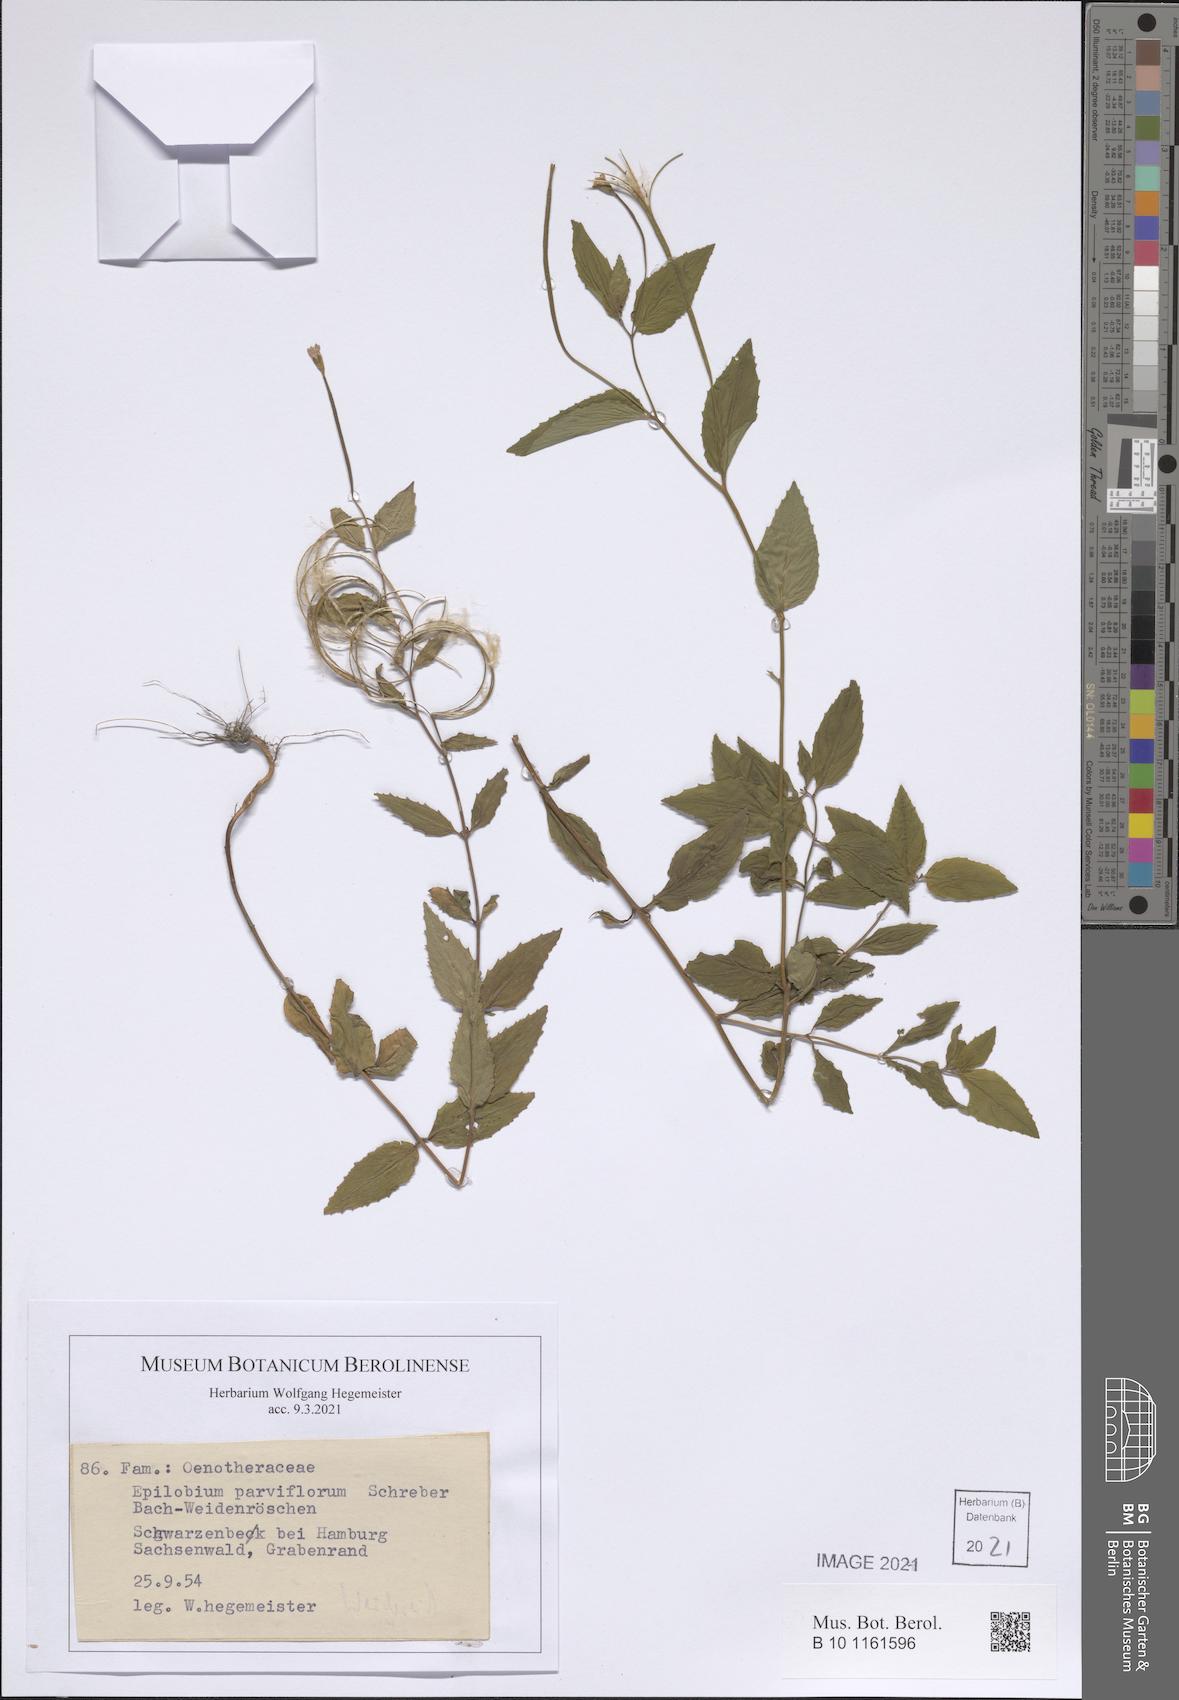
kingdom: Plantae
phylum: Tracheophyta
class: Magnoliopsida
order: Myrtales
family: Onagraceae
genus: Epilobium
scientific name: Epilobium parviflorum
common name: Hoary willowherb
